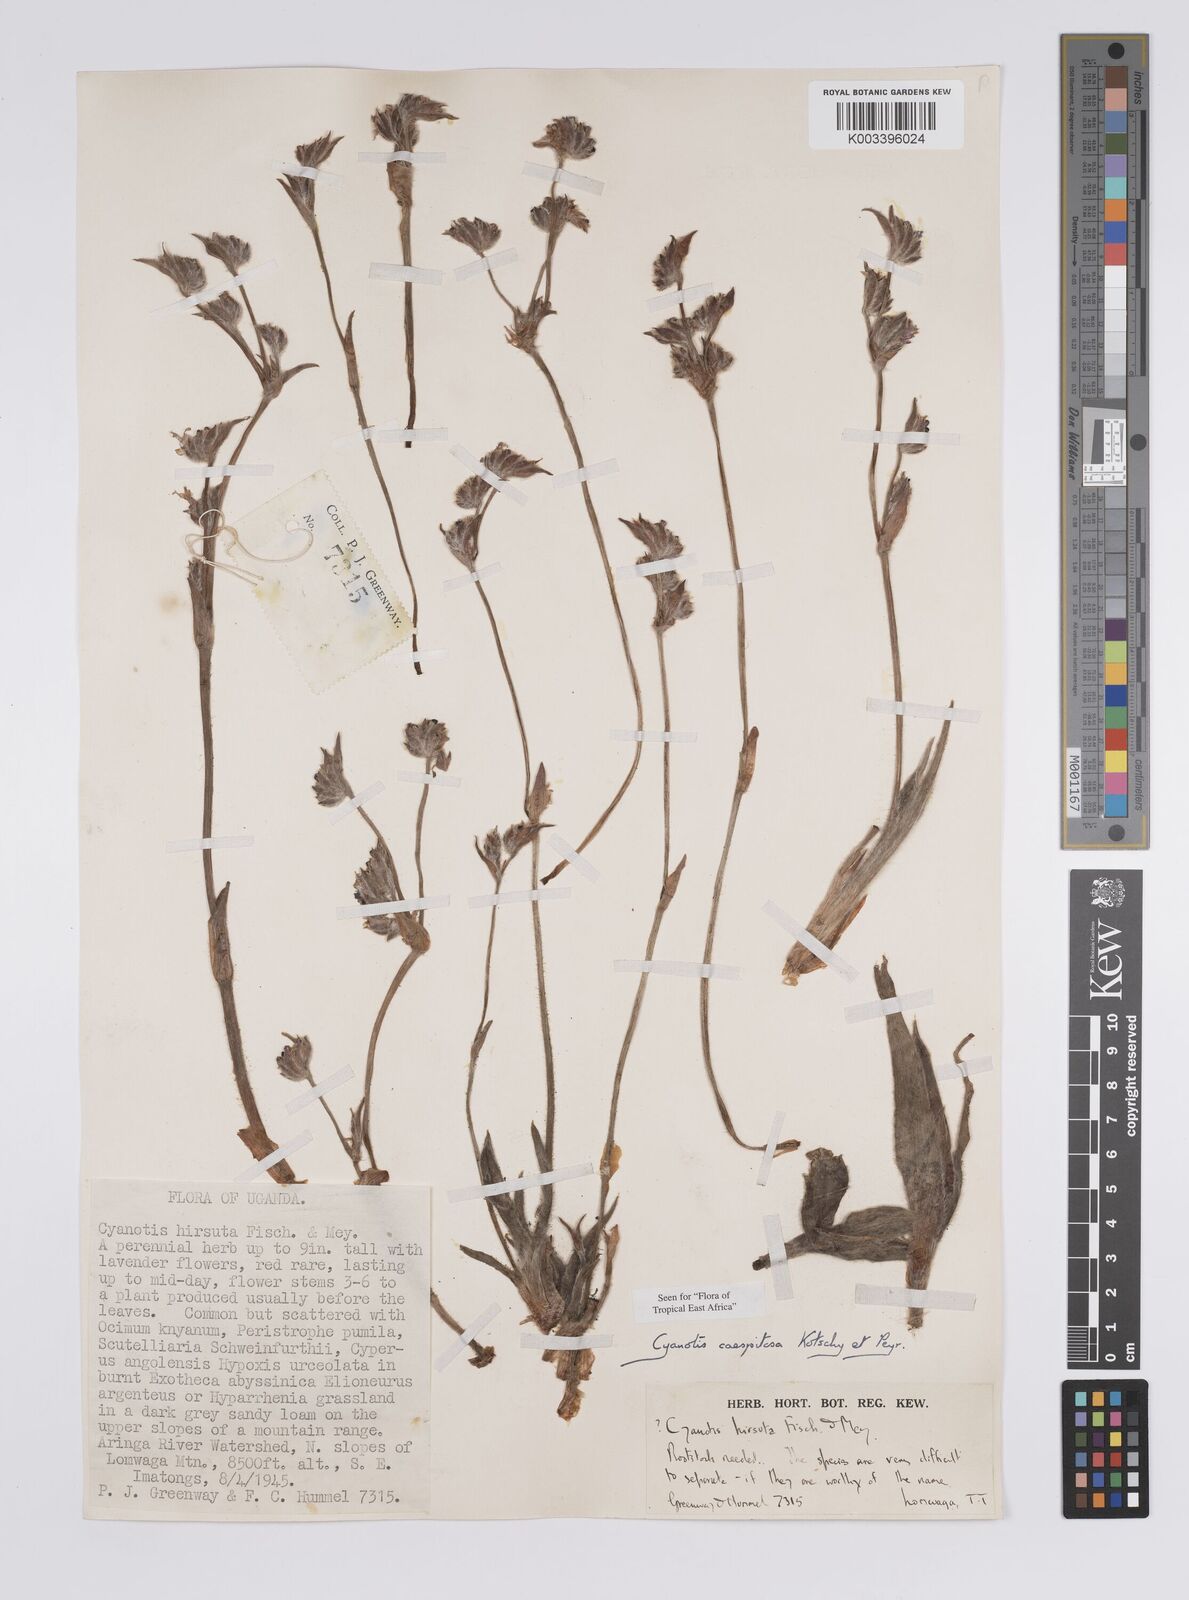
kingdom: Plantae
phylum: Tracheophyta
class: Liliopsida
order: Commelinales
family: Commelinaceae
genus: Cyanotis
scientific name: Cyanotis caespitosa
